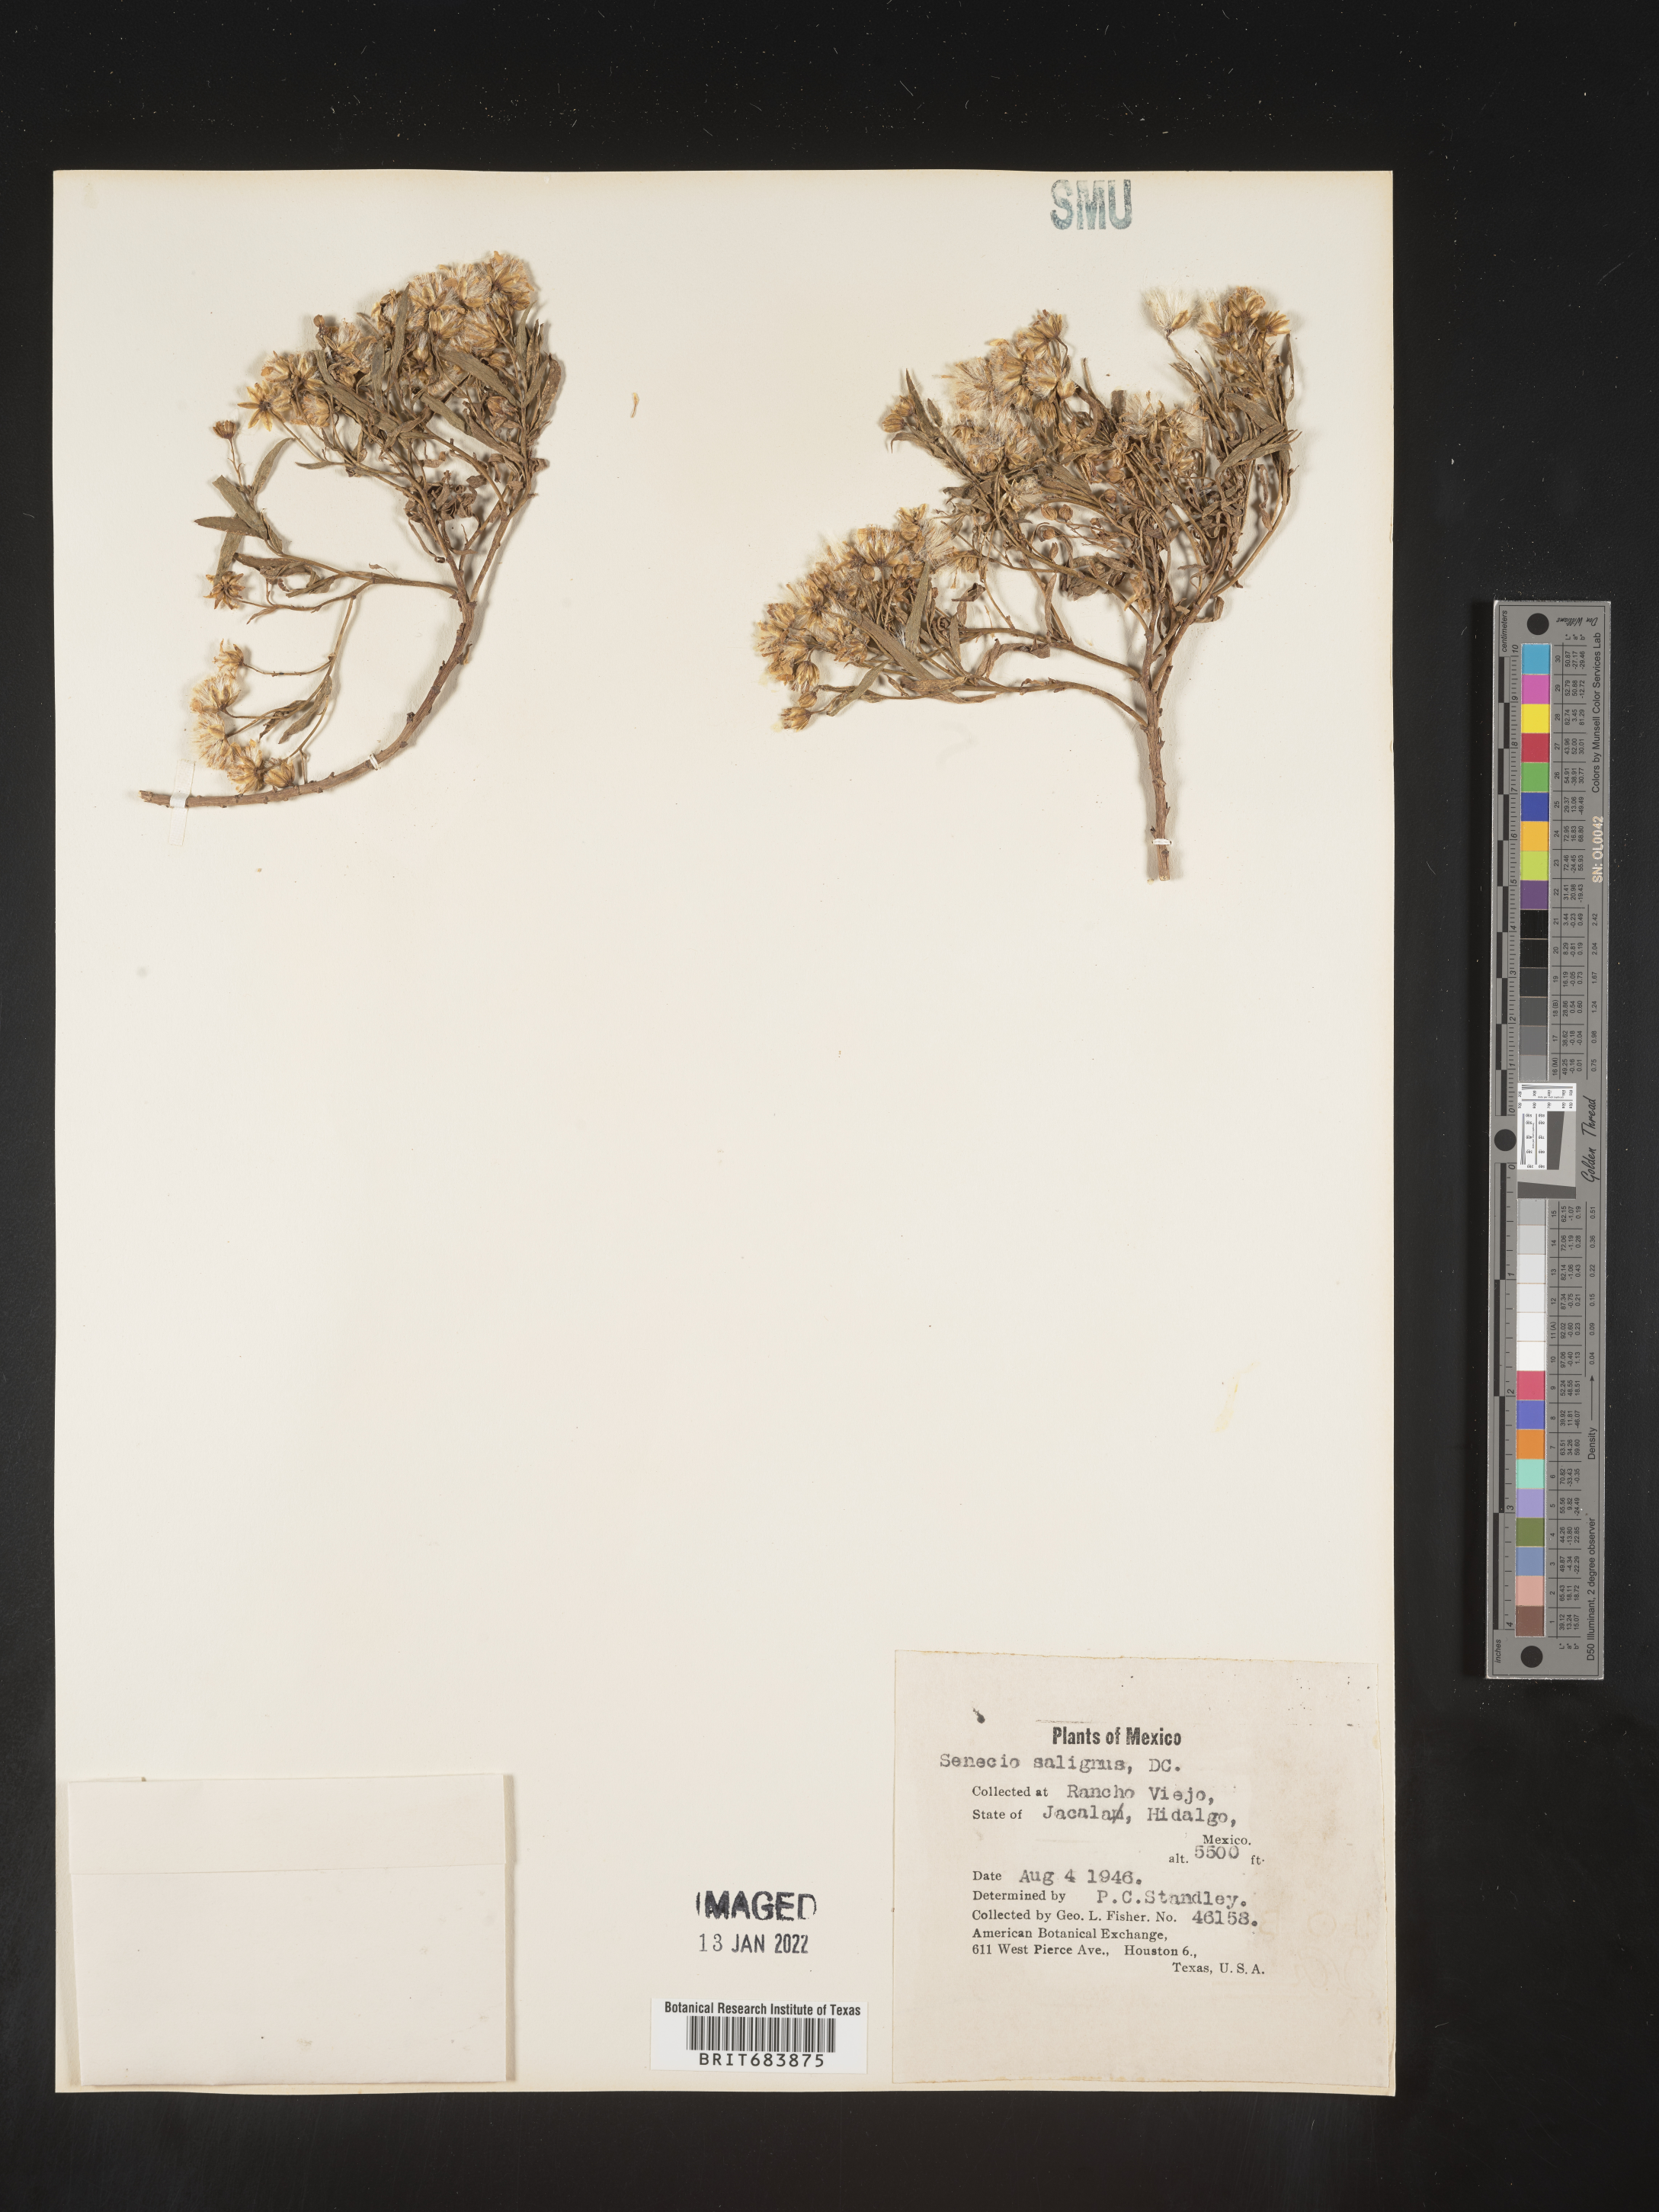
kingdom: Plantae
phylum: Tracheophyta
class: Magnoliopsida
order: Asterales
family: Asteraceae
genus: Barkleyanthus
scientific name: Barkleyanthus
